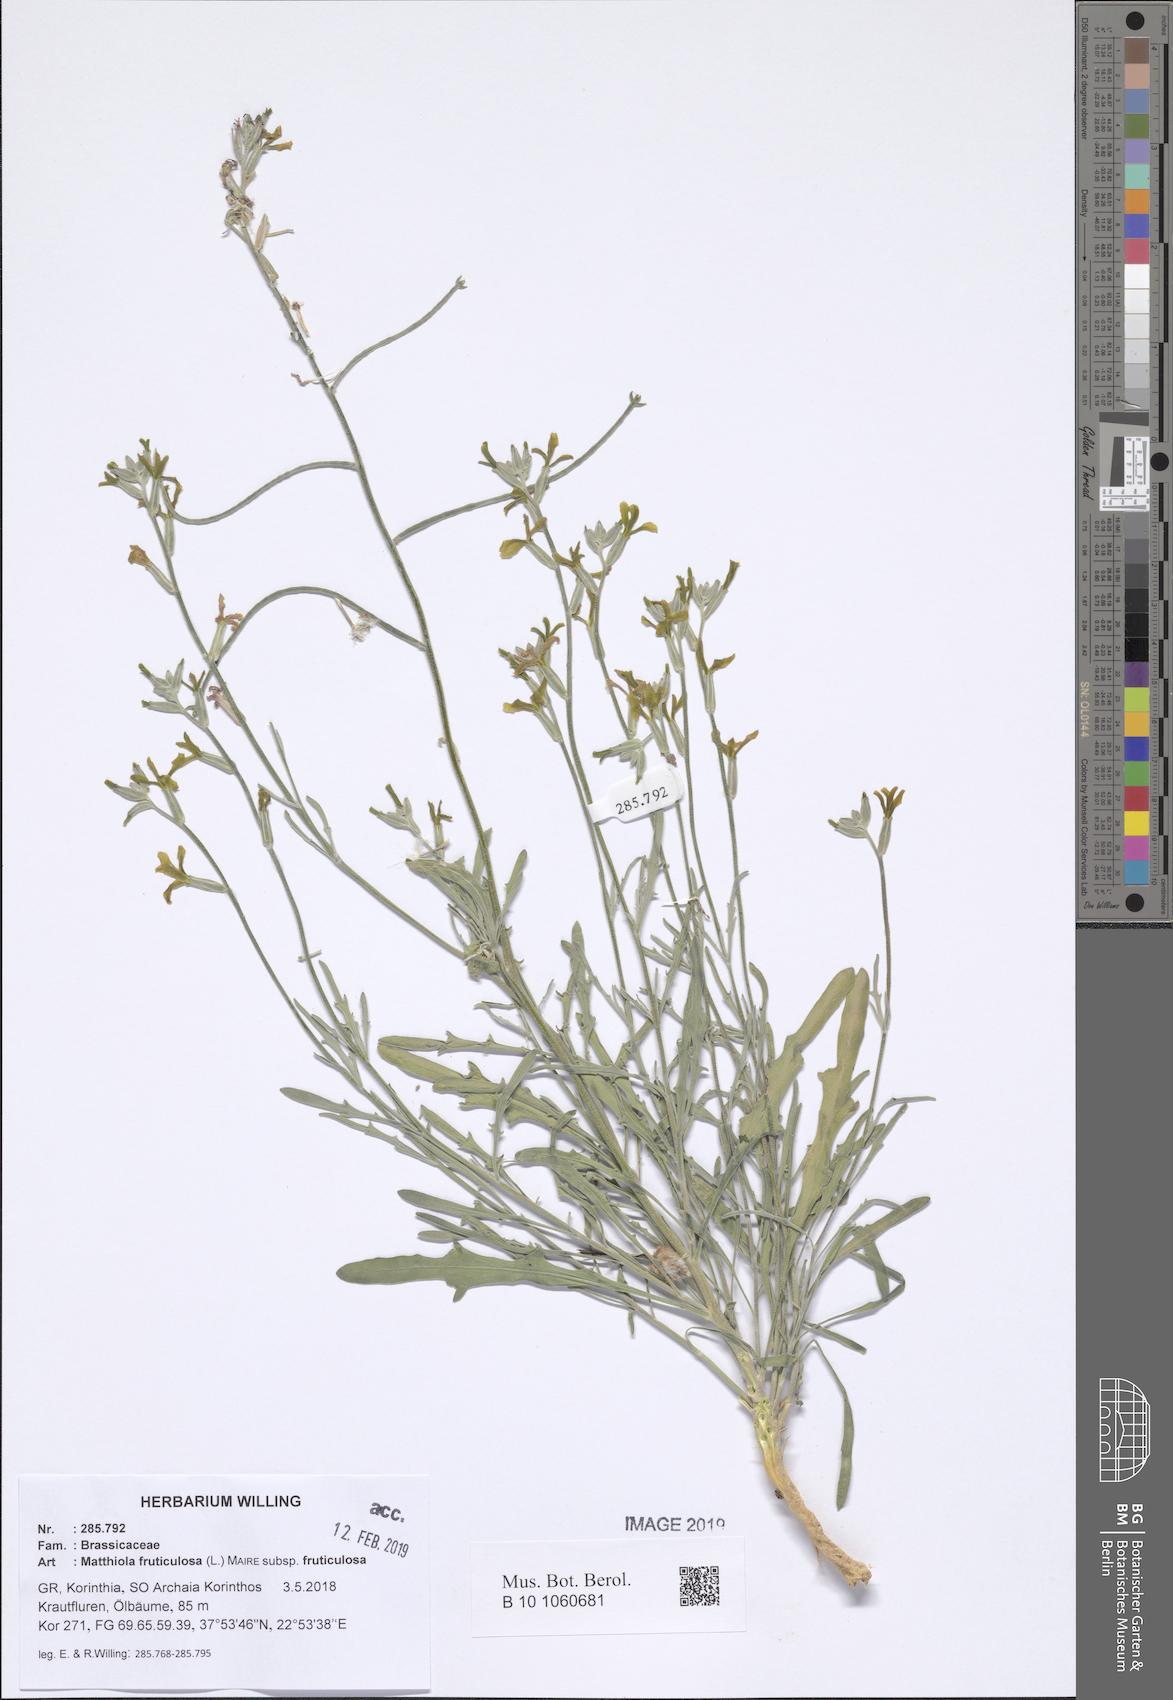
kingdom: Plantae
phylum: Tracheophyta
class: Magnoliopsida
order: Brassicales
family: Brassicaceae
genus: Matthiola
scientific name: Matthiola fruticulosa
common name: Sad stock
